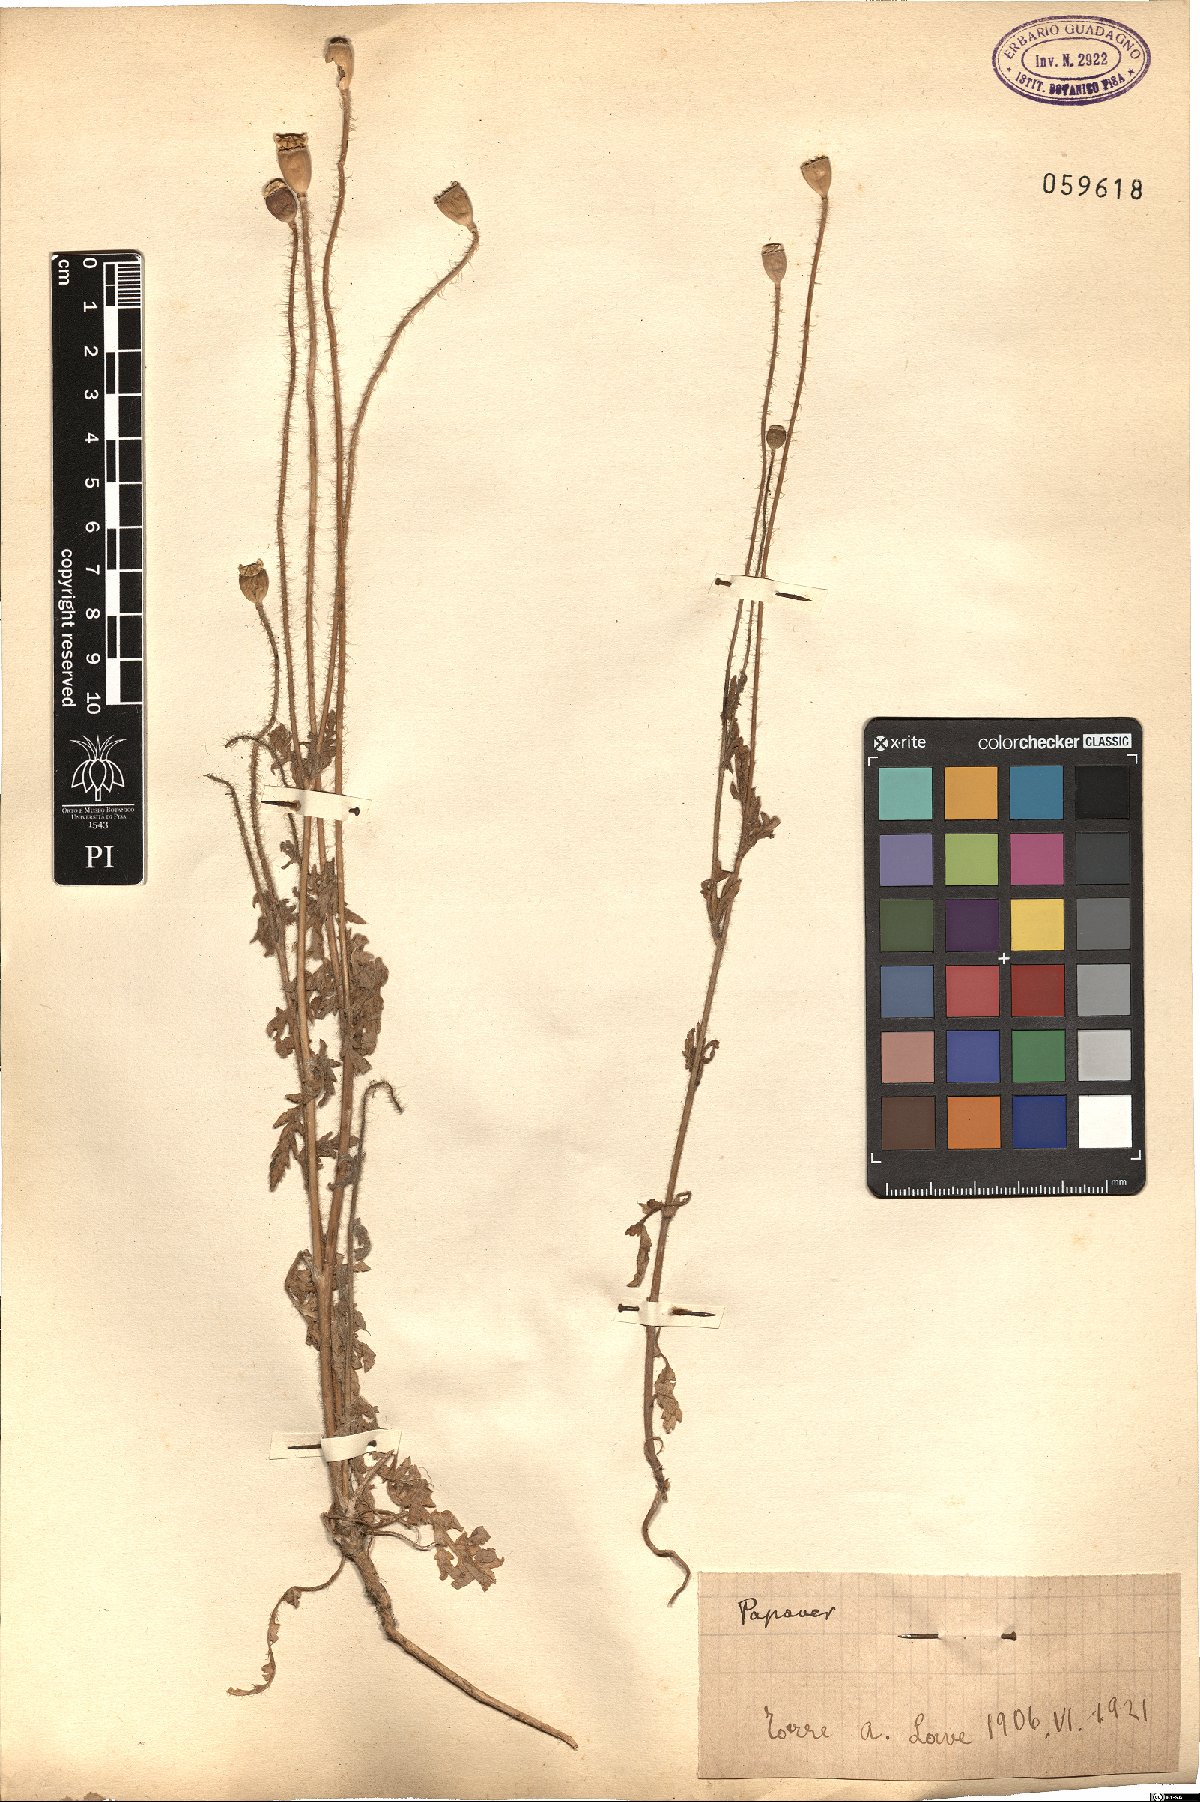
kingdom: Plantae
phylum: Tracheophyta
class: Magnoliopsida
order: Ranunculales
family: Papaveraceae
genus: Papaver
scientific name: Papaver
